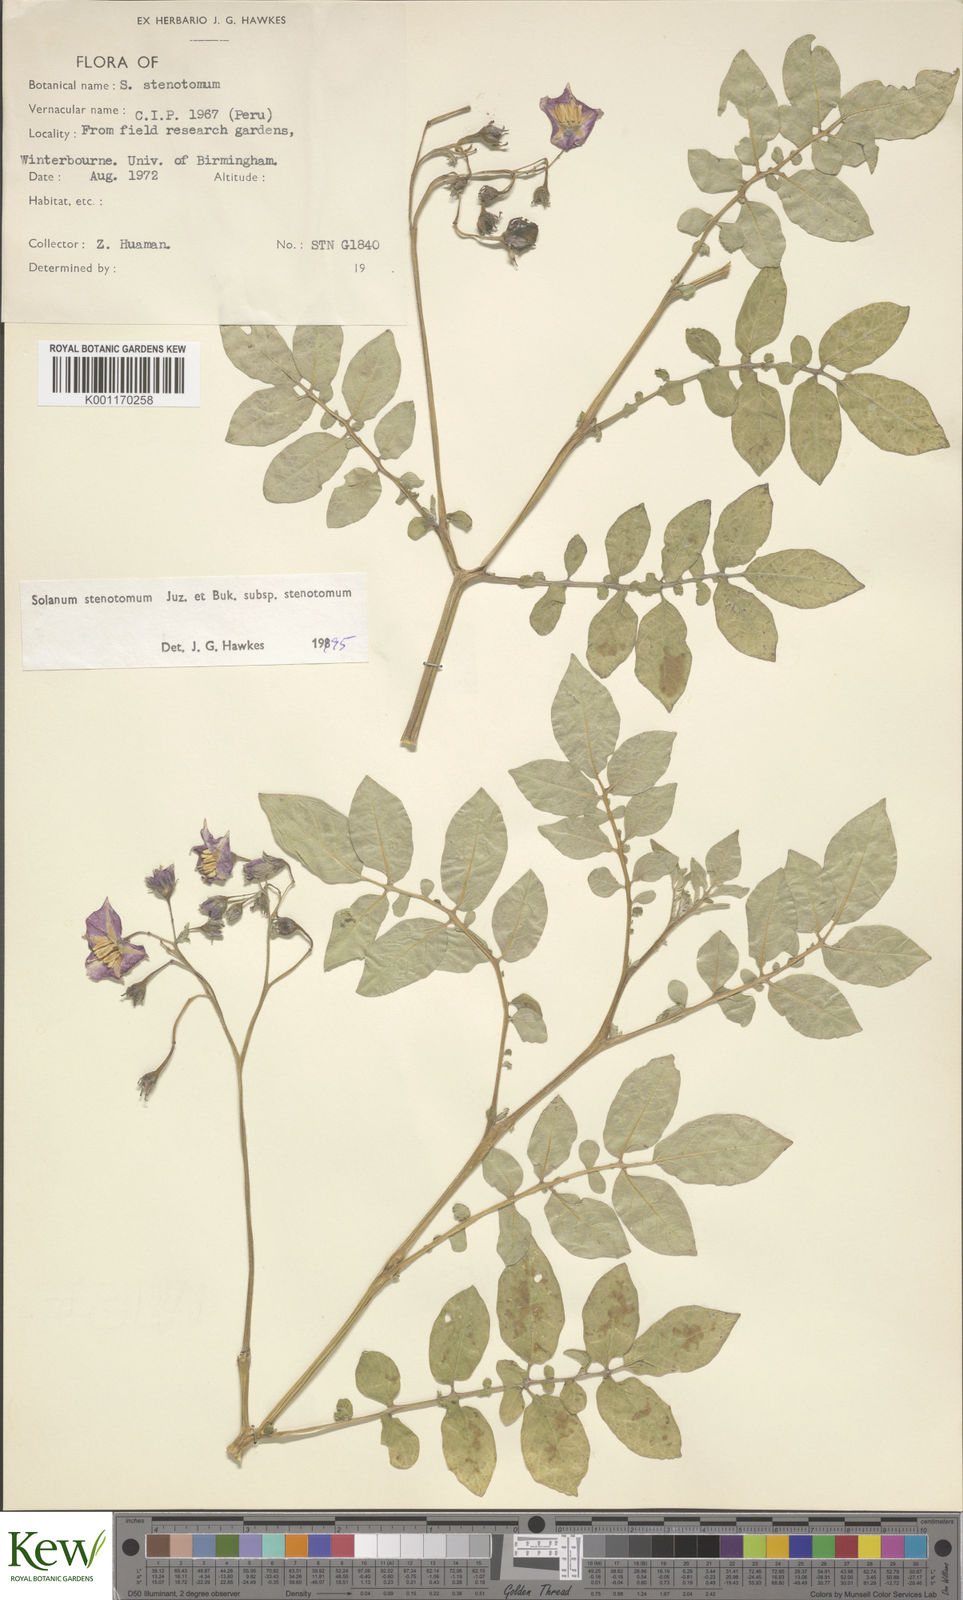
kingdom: Plantae
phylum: Tracheophyta
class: Magnoliopsida
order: Solanales
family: Solanaceae
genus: Solanum
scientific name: Solanum tuberosum
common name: Potato
